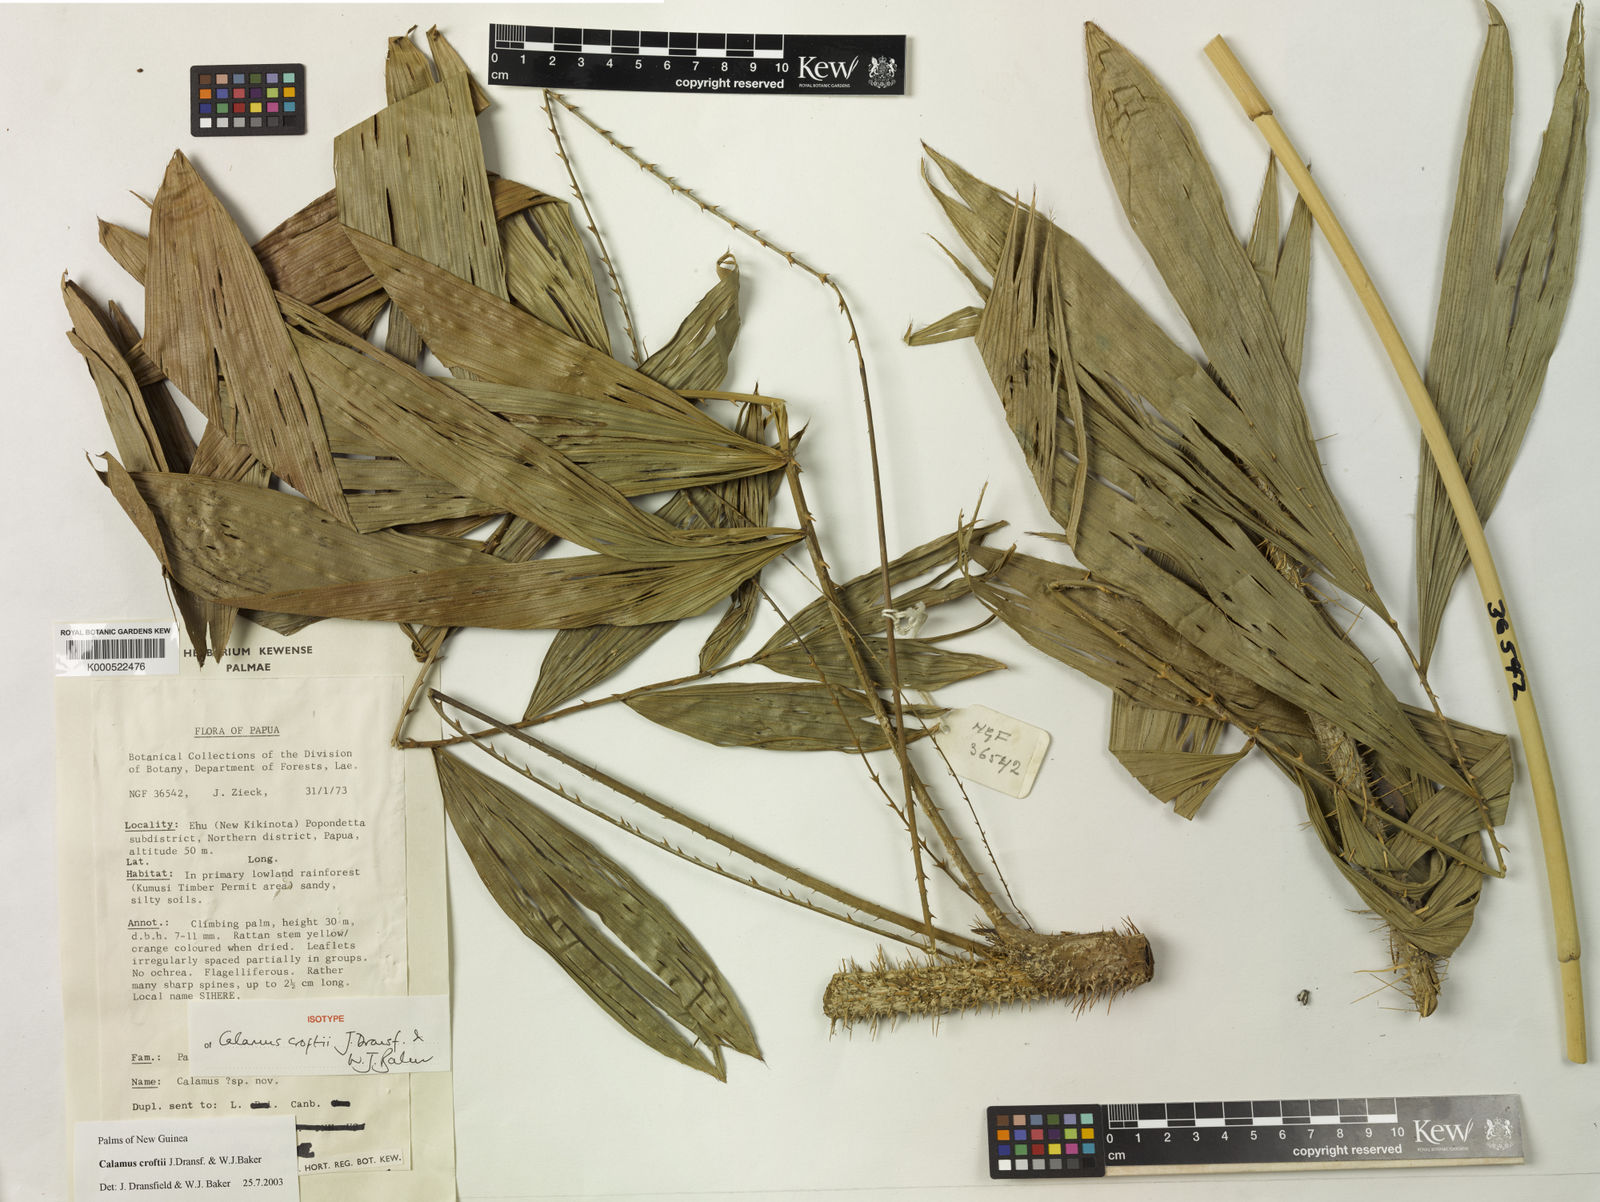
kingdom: Plantae
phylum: Tracheophyta
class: Liliopsida
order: Arecales
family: Arecaceae
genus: Calamus
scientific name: Calamus croftii
